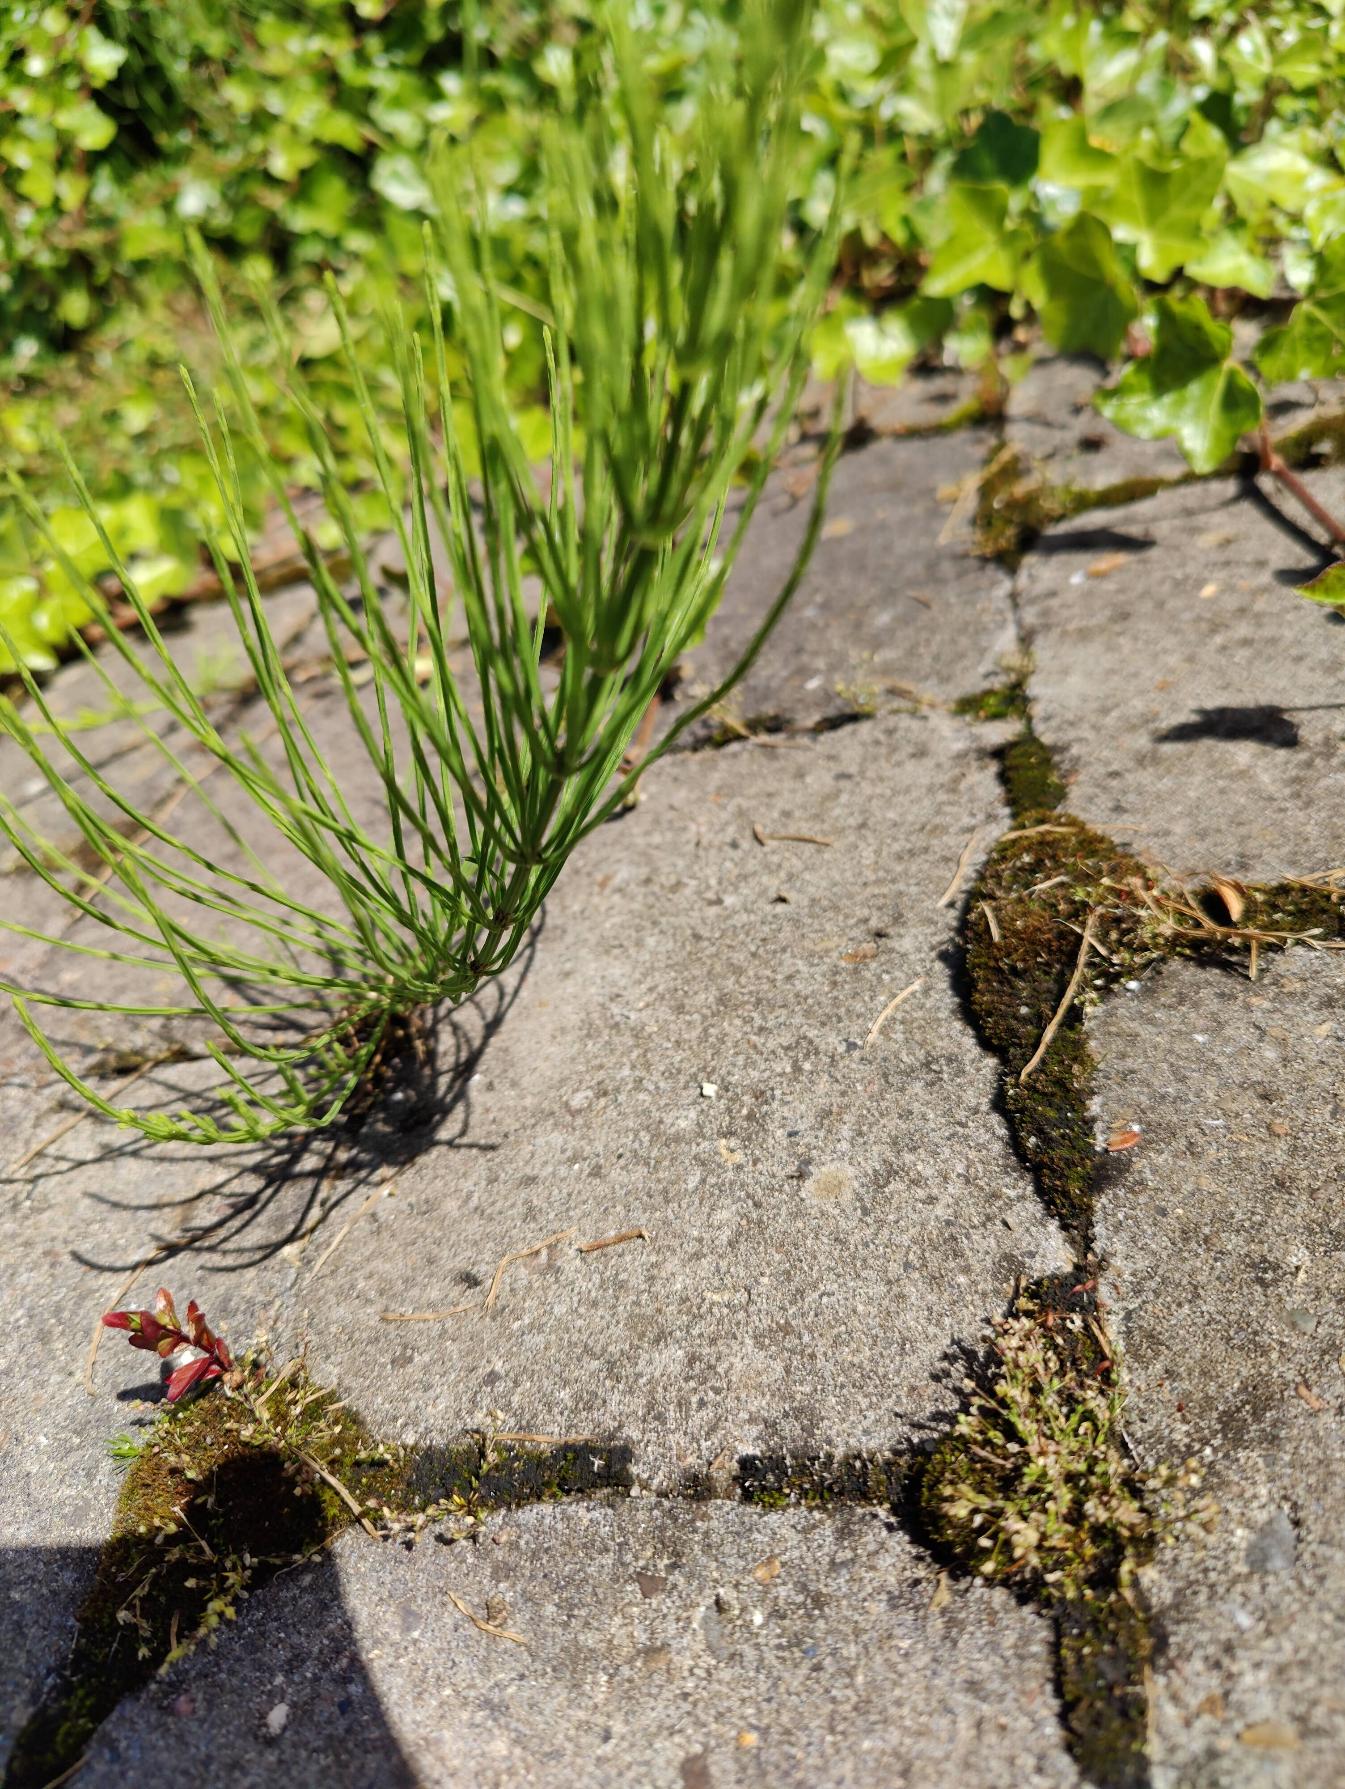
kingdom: Plantae
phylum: Tracheophyta
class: Polypodiopsida
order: Equisetales
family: Equisetaceae
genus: Equisetum
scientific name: Equisetum arvense
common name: Ager-padderok
